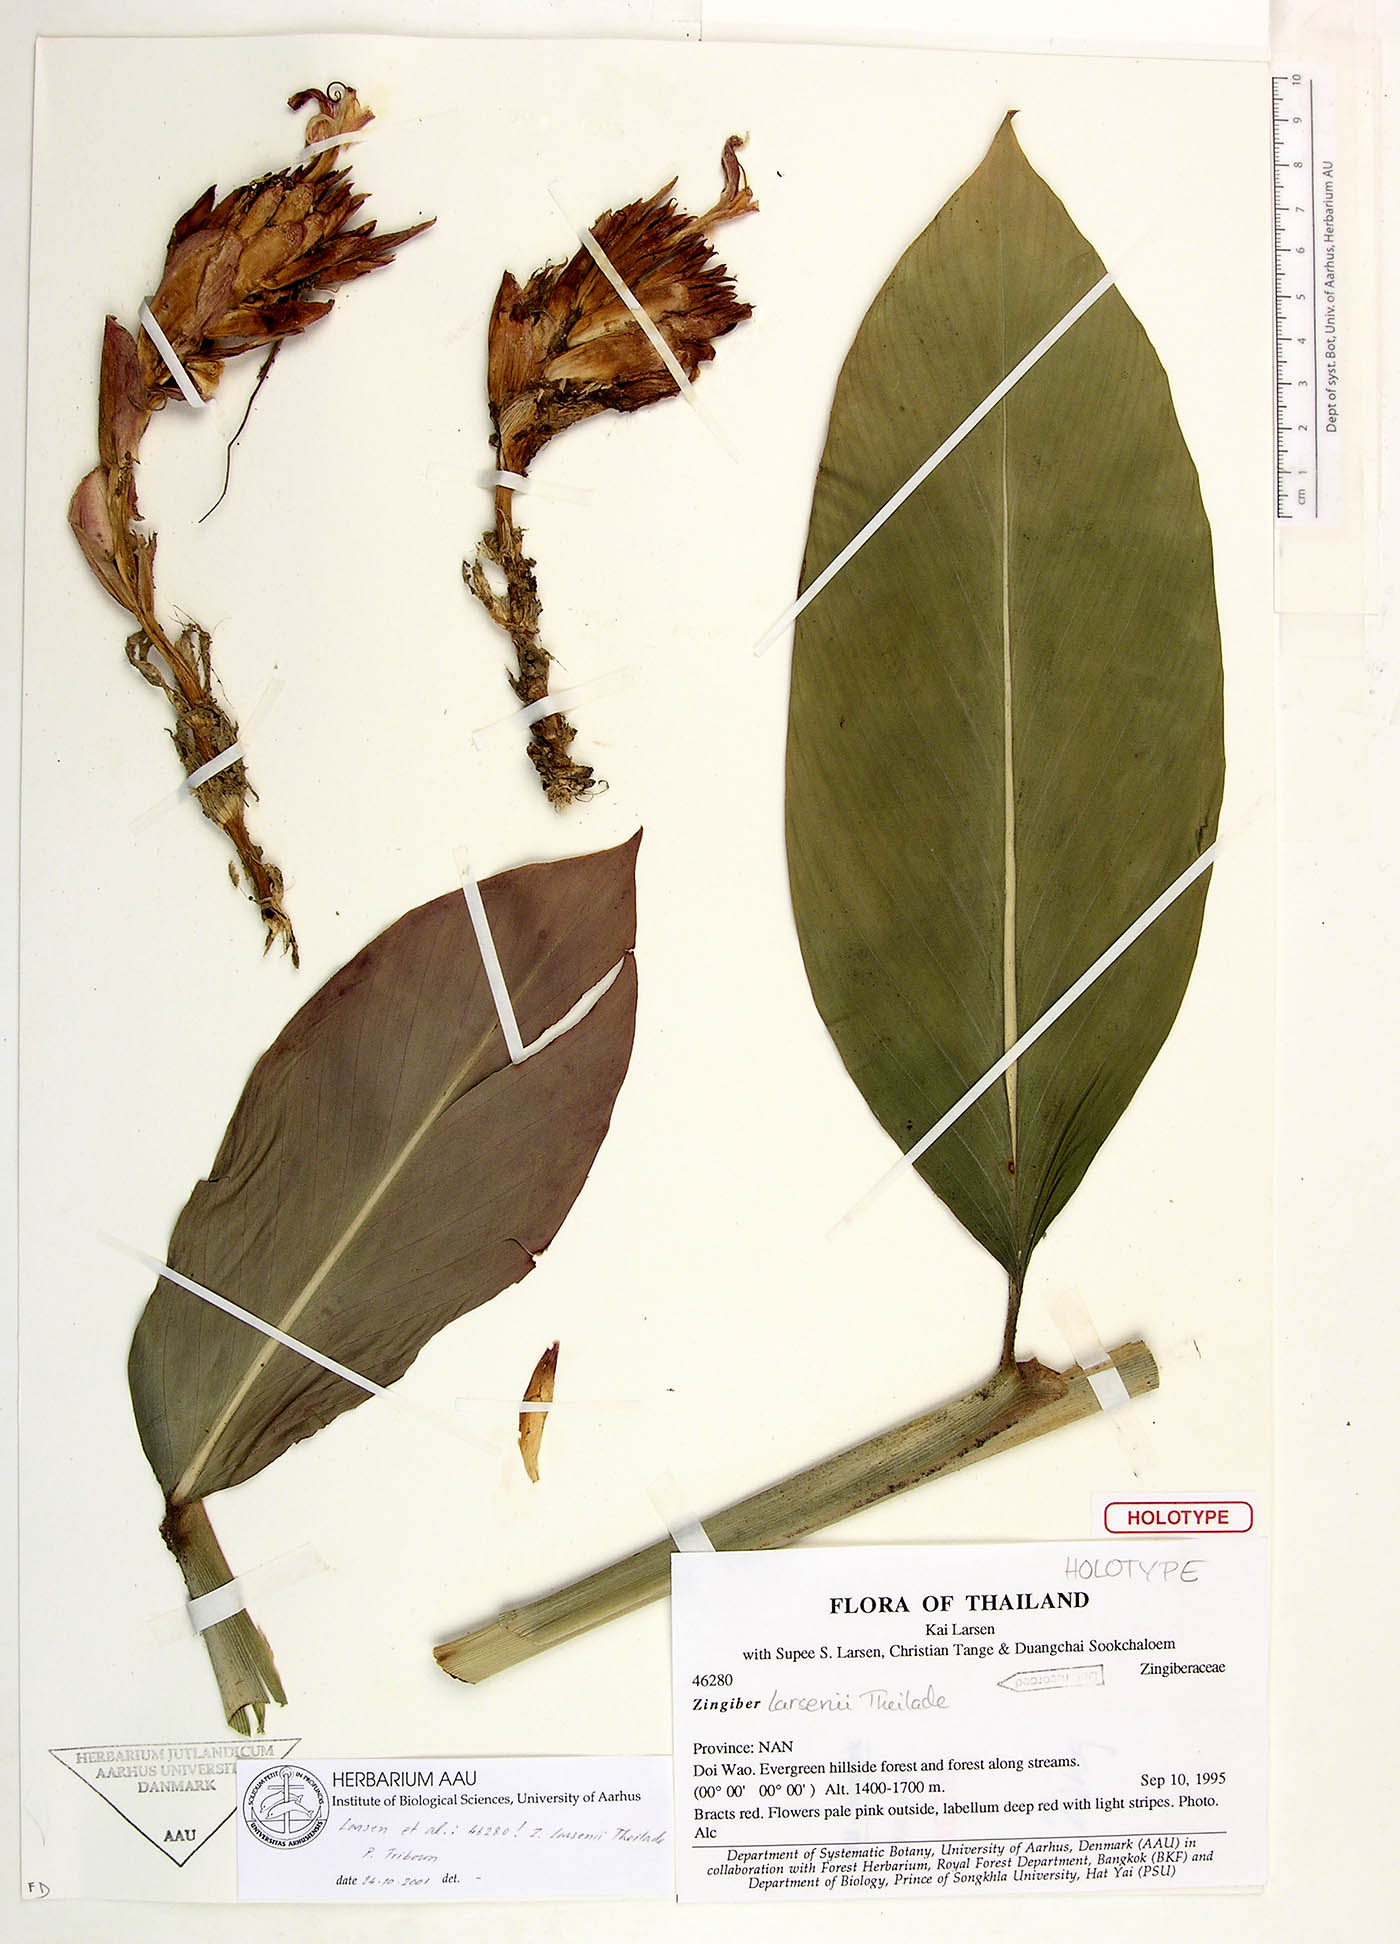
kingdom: Plantae
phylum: Tracheophyta
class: Liliopsida
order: Zingiberales
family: Zingiberaceae
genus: Zingiber
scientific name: Zingiber larsenii
